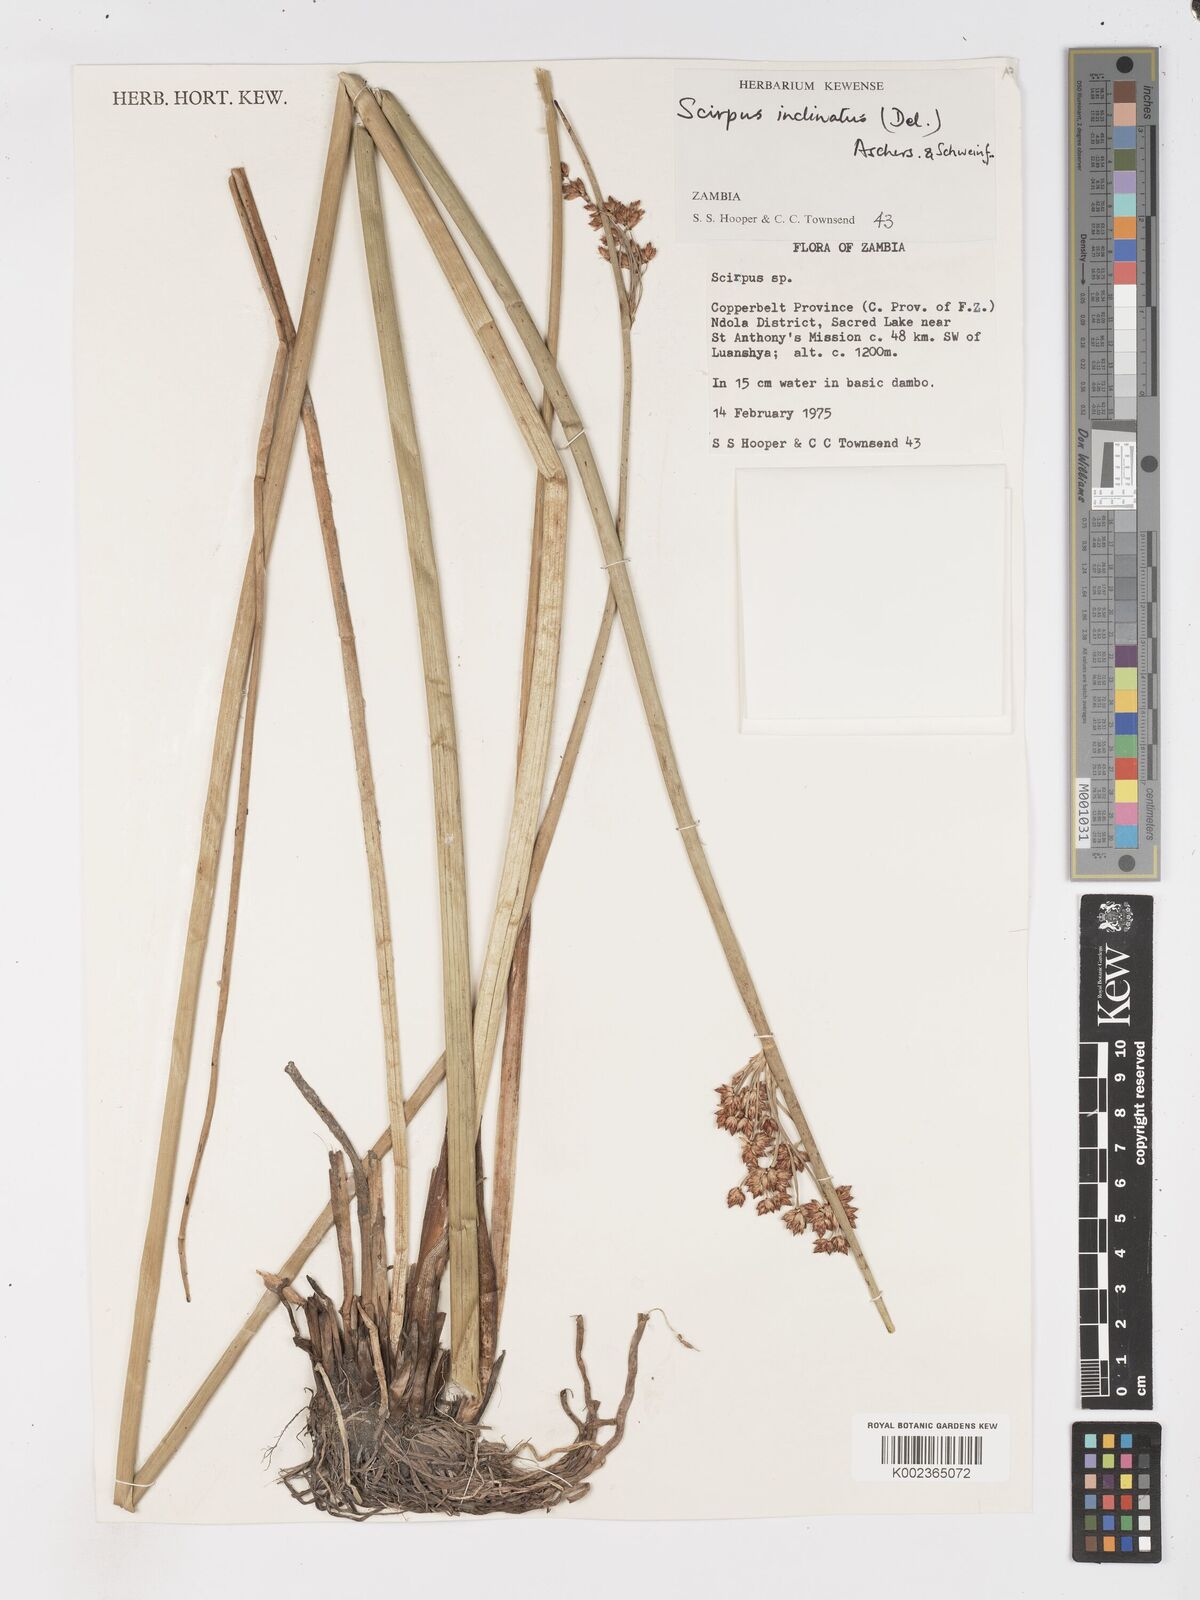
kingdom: Plantae
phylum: Tracheophyta
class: Liliopsida
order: Poales
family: Cyperaceae
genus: Schoenoplectiella
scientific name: Schoenoplectiella corymbosa
